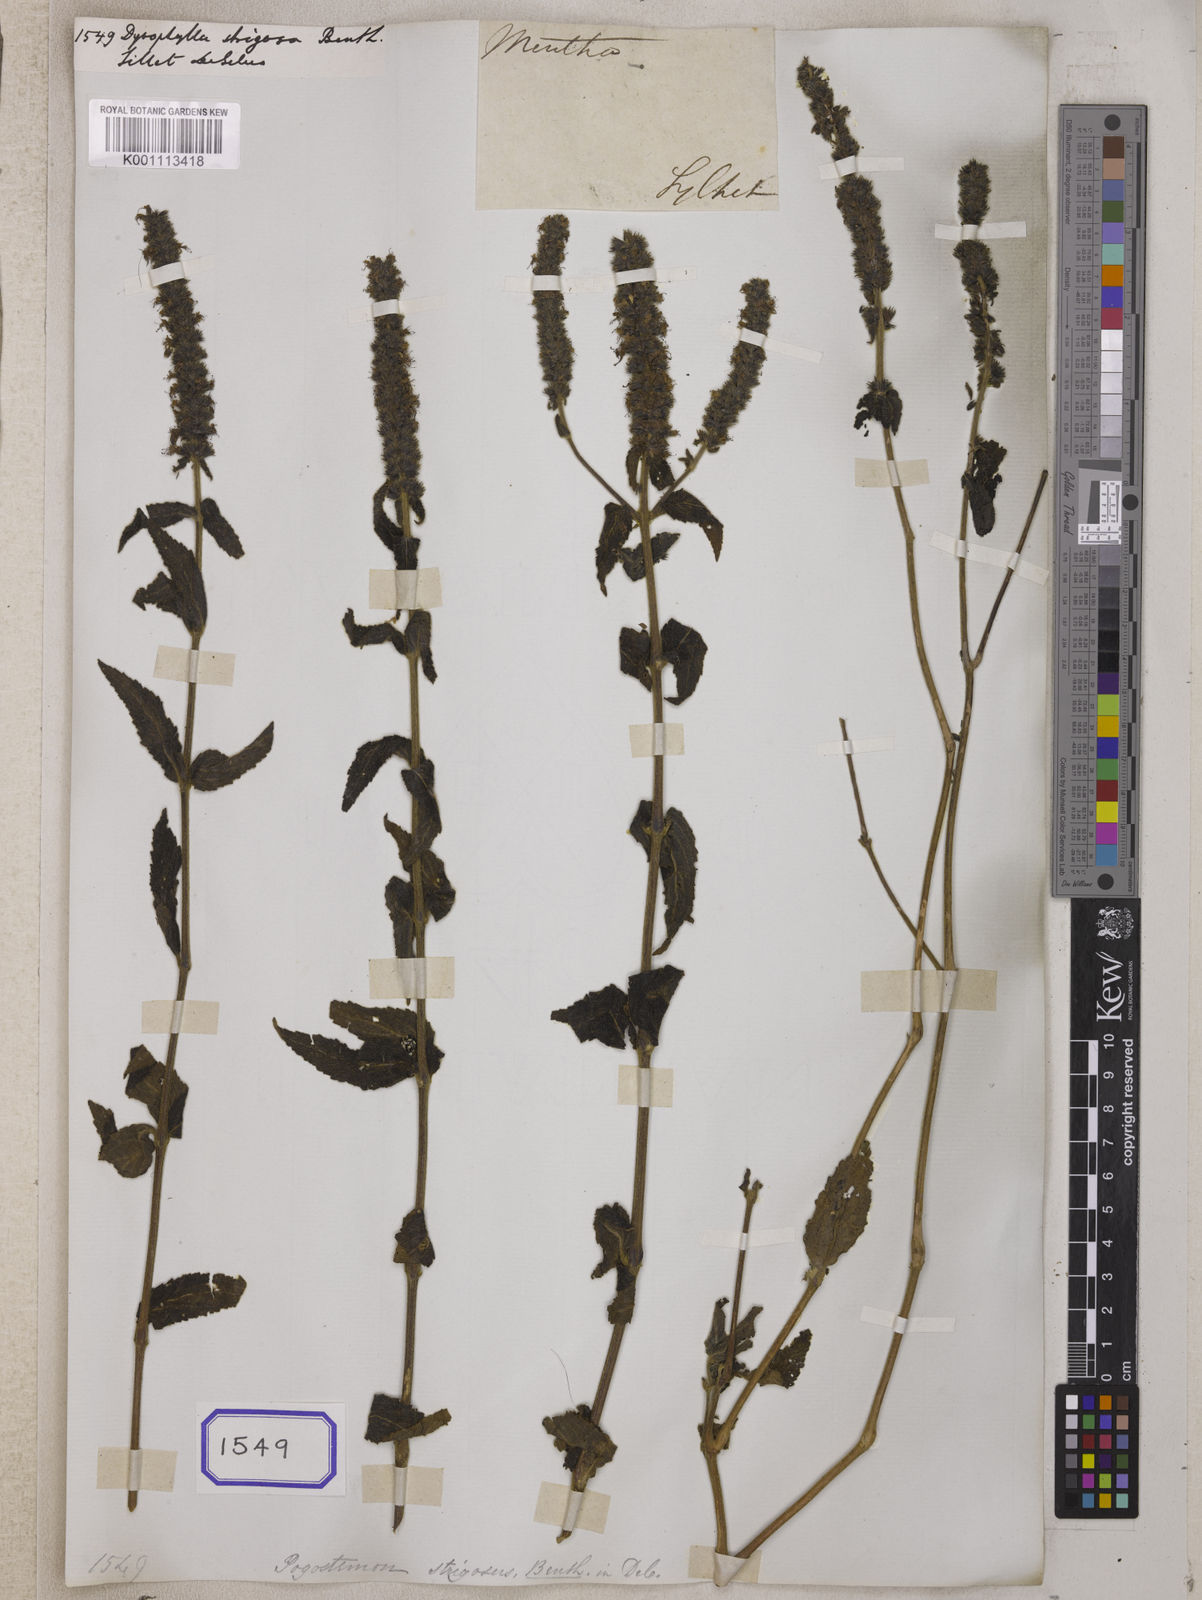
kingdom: Plantae
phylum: Tracheophyta
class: Magnoliopsida
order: Lamiales
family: Lamiaceae
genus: Pogostemon
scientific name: Pogostemon strigosus
